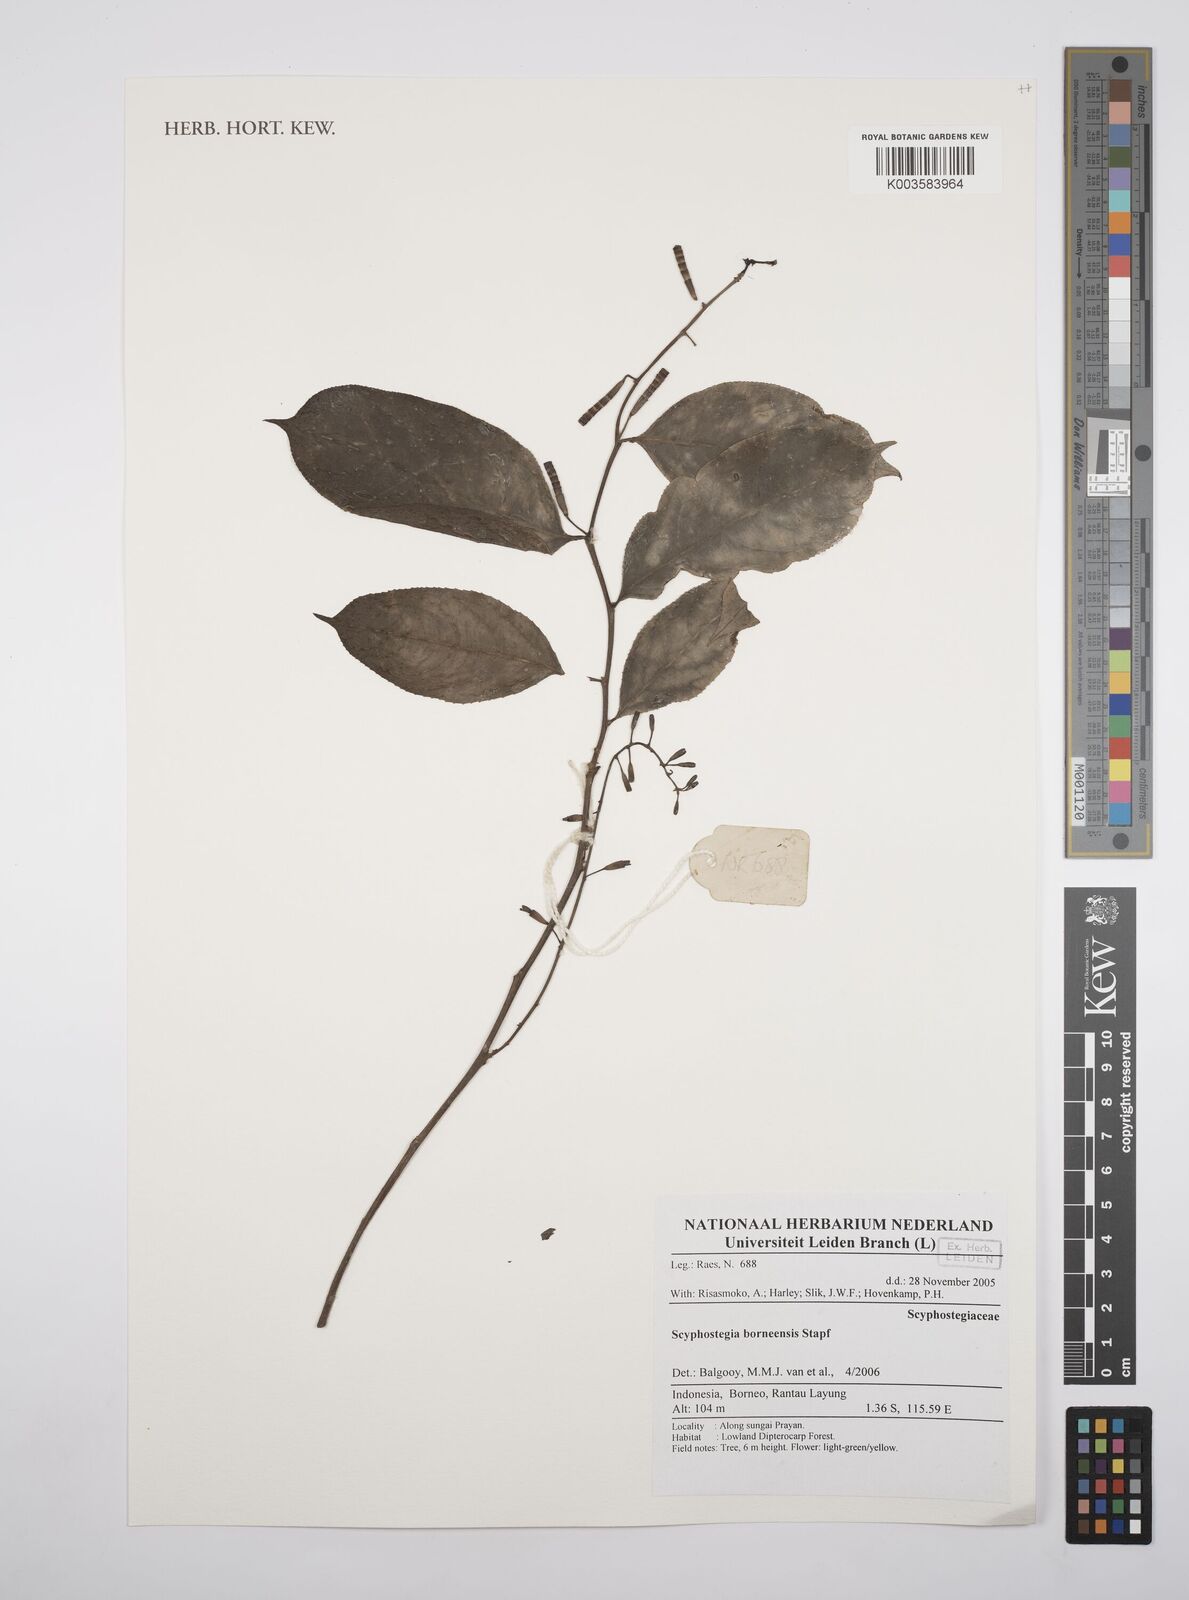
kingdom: Plantae
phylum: Tracheophyta
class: Magnoliopsida
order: Malpighiales
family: Salicaceae
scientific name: Salicaceae
